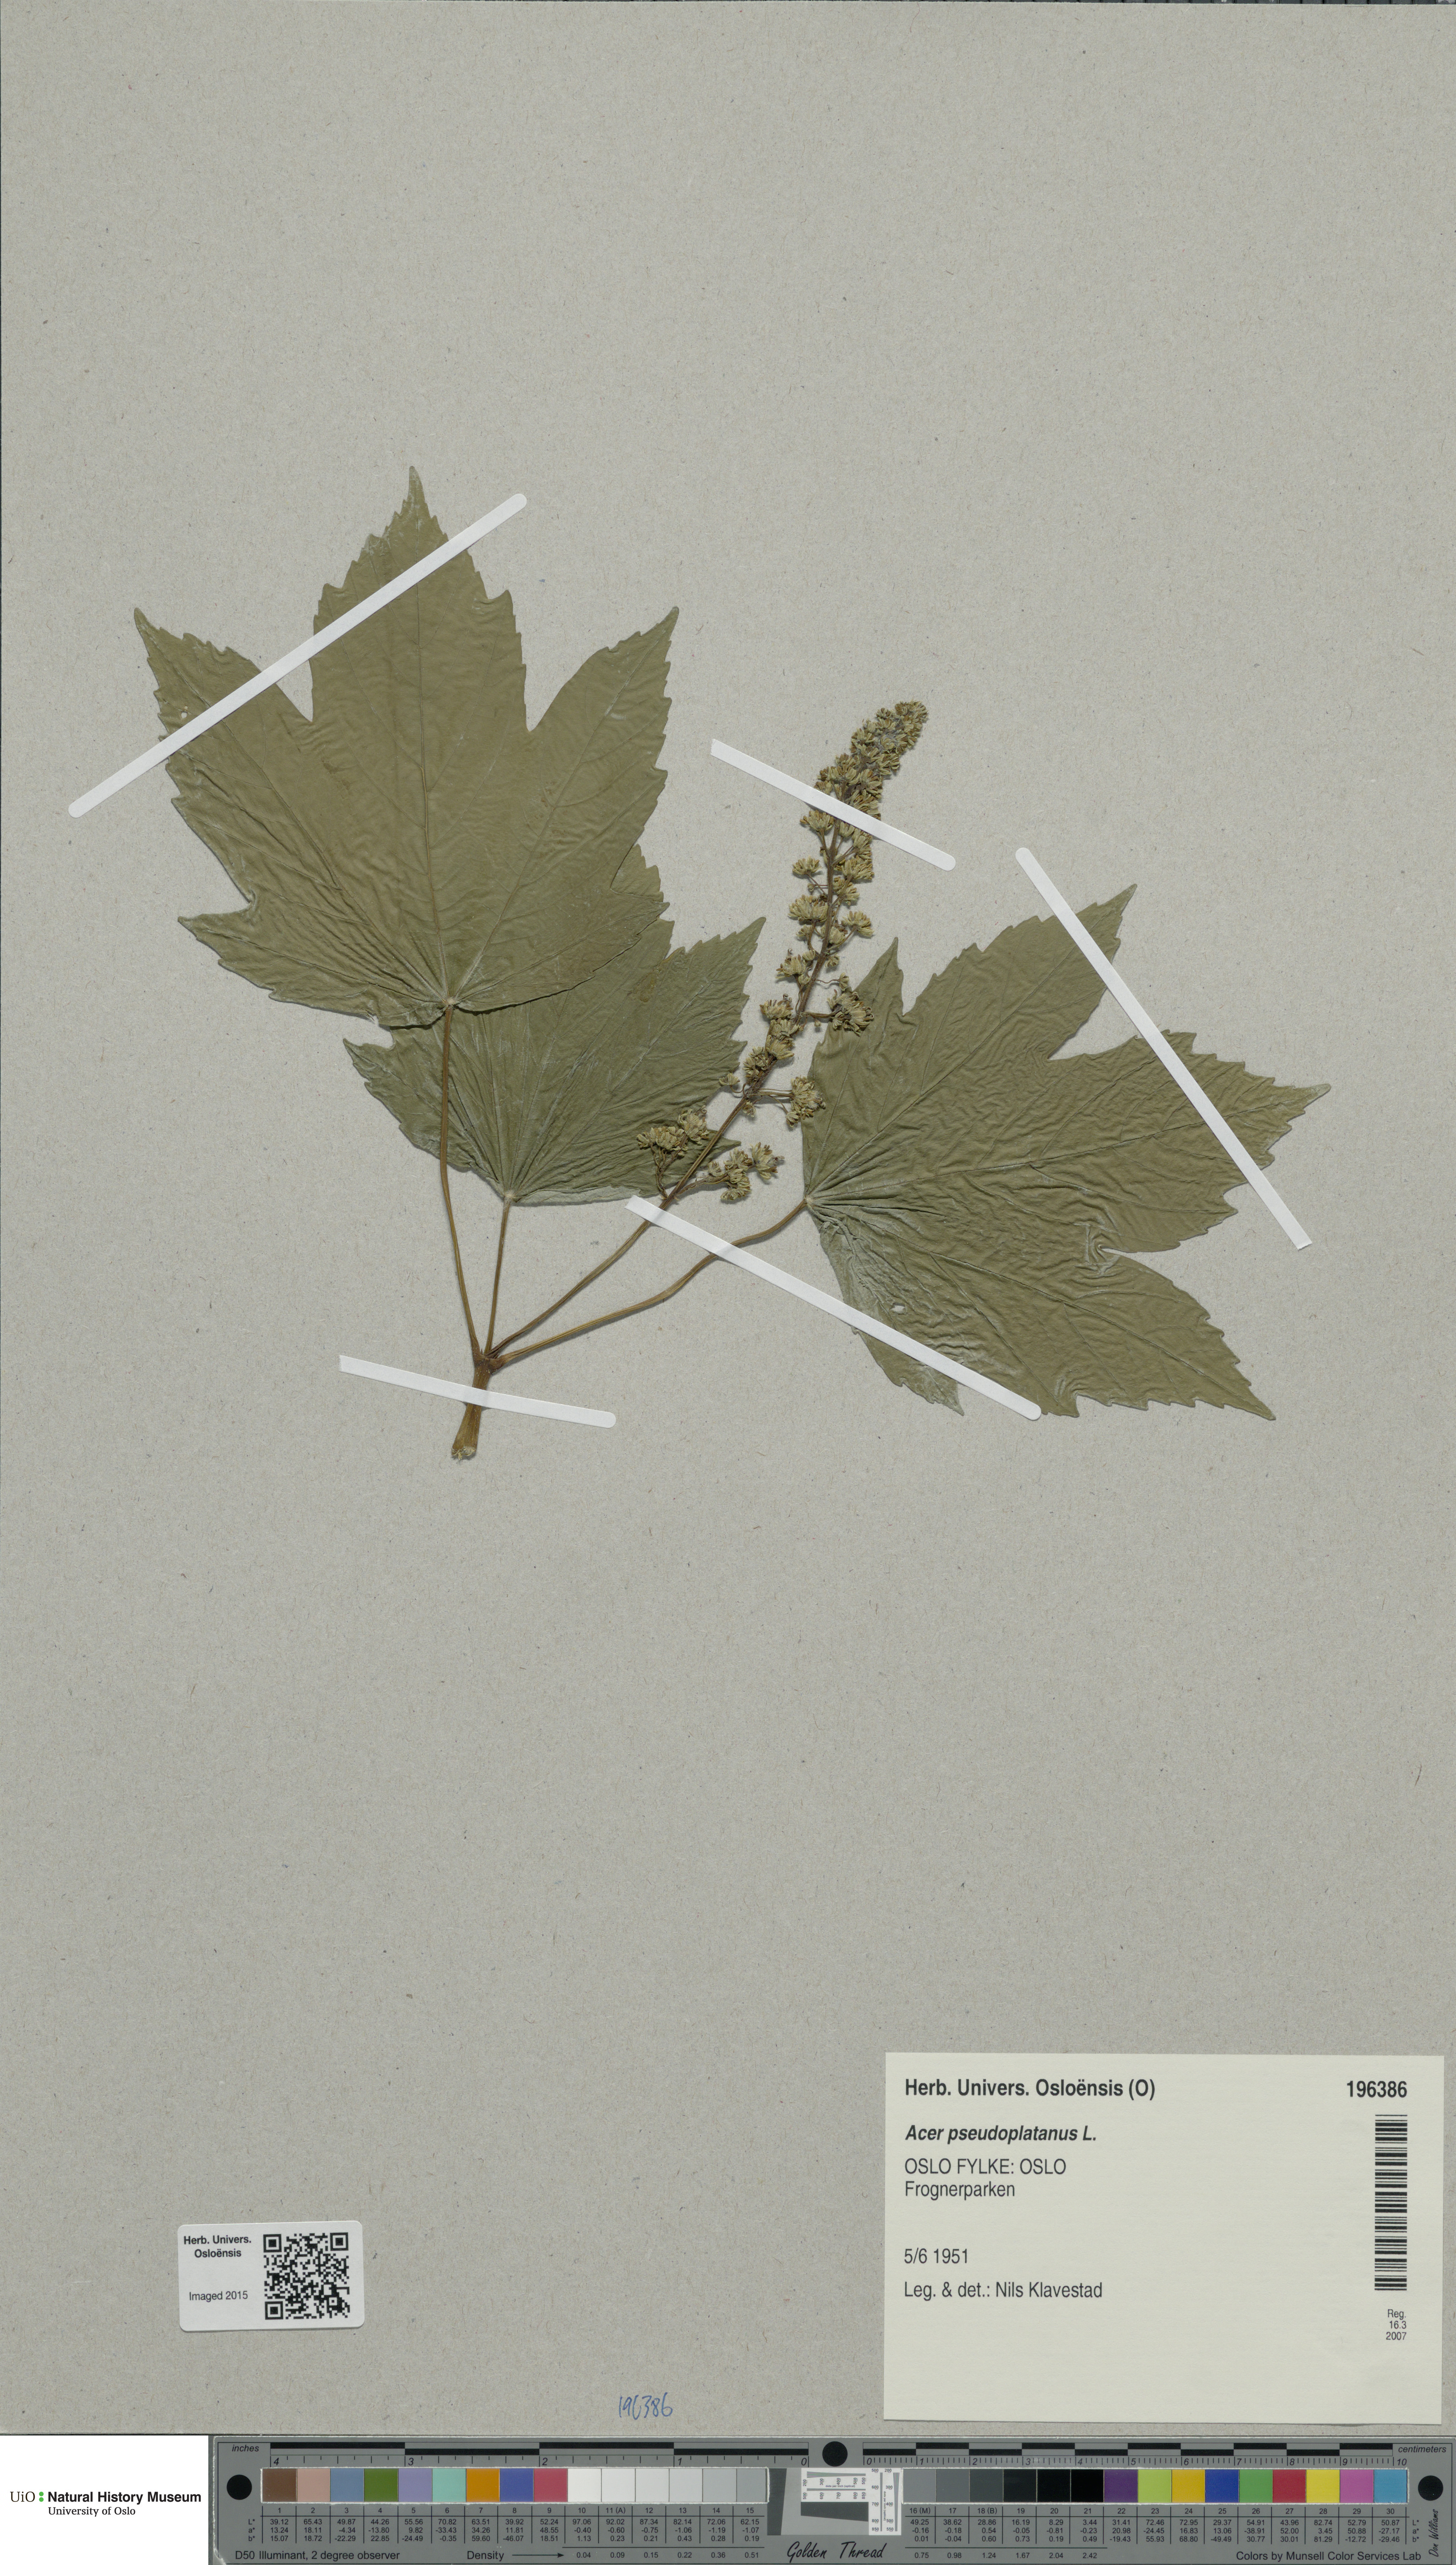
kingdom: Plantae
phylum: Tracheophyta
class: Magnoliopsida
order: Sapindales
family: Sapindaceae
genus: Acer
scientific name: Acer pseudoplatanus
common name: Sycamore
